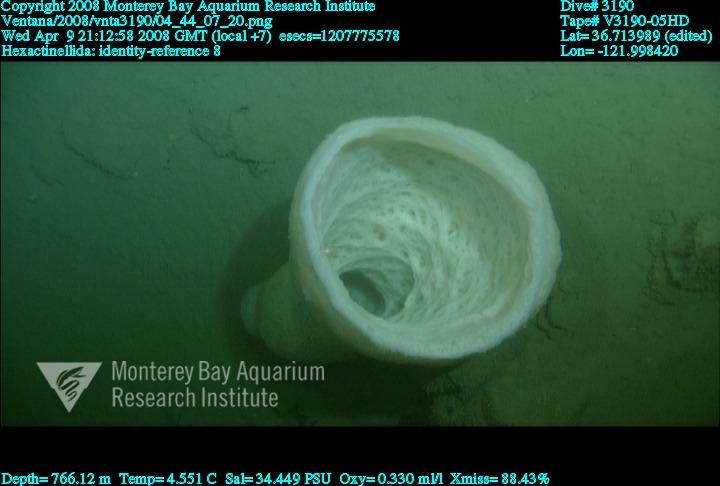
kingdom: Animalia
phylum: Porifera
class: Hexactinellida
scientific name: Hexactinellida
